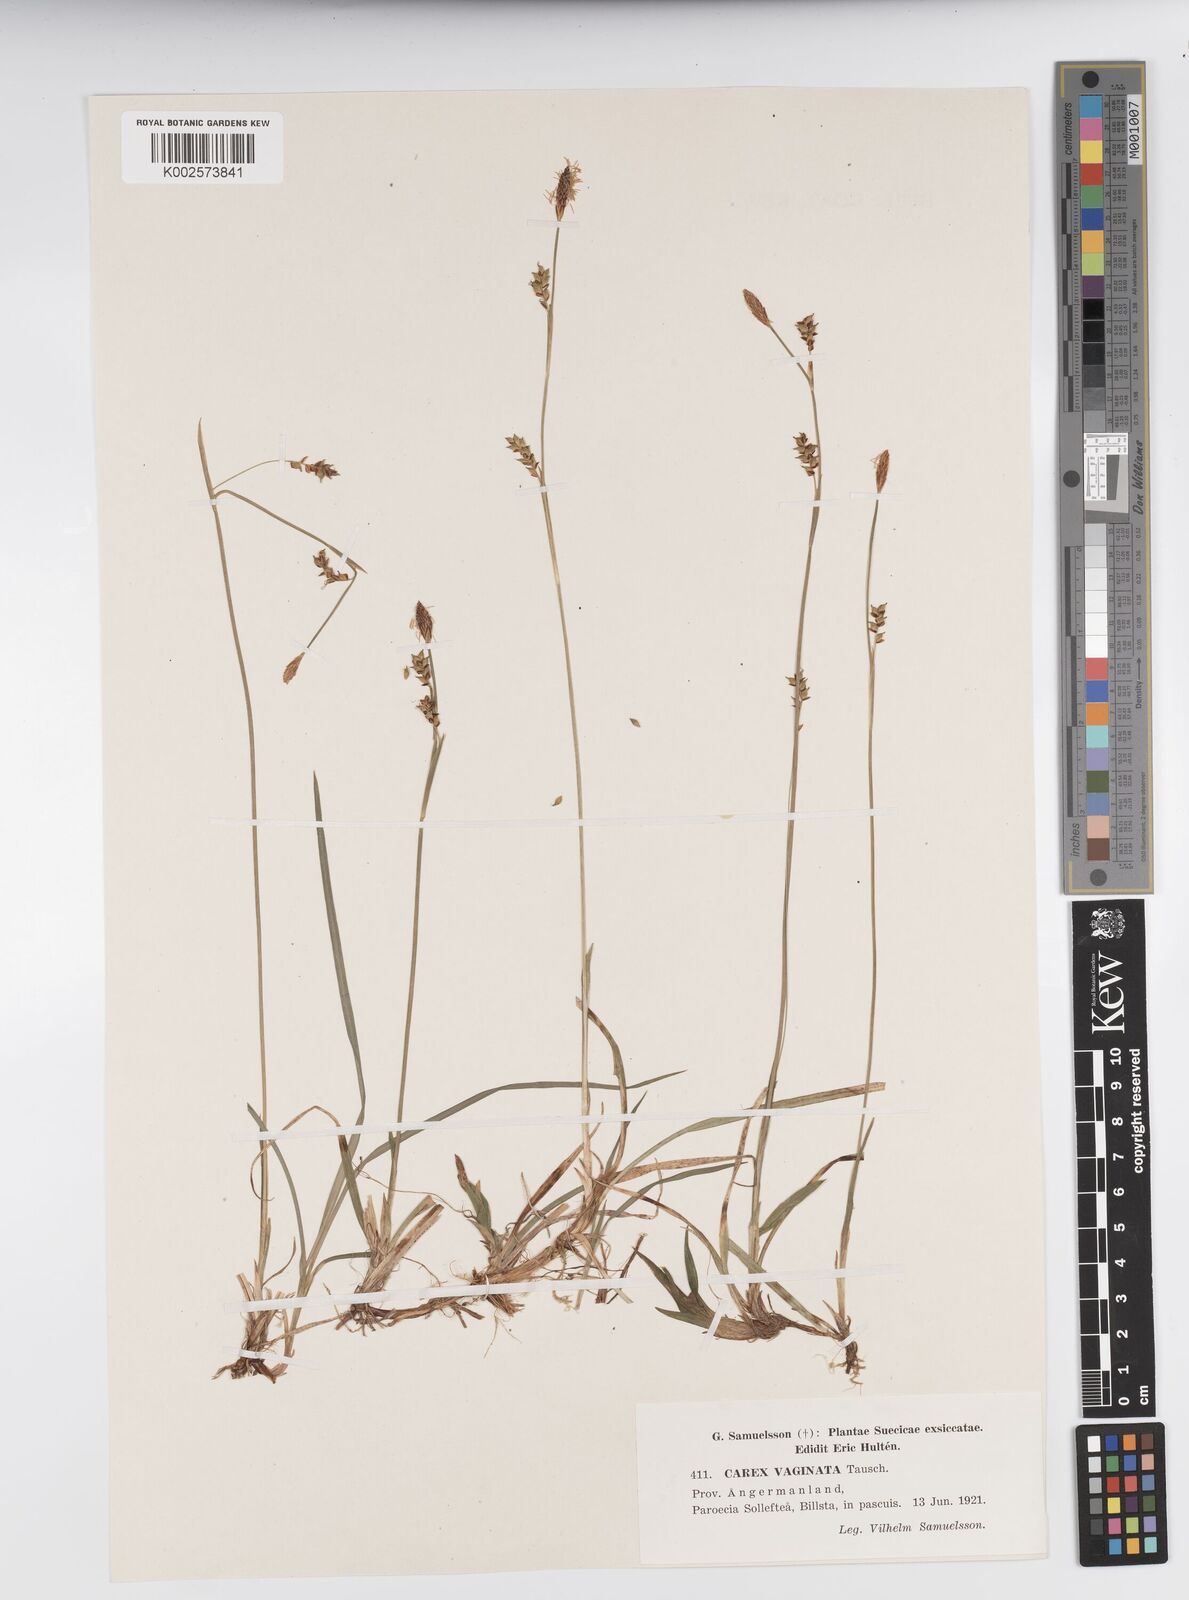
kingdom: Plantae
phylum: Tracheophyta
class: Liliopsida
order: Poales
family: Cyperaceae
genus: Carex
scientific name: Carex vaginata
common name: Sheathed sedge
